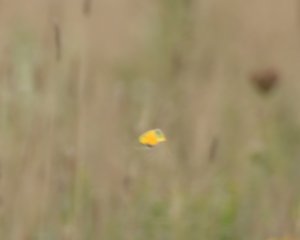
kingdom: Animalia
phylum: Arthropoda
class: Insecta
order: Lepidoptera
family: Pieridae
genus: Colias
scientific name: Colias eurytheme
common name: Orange Sulphur
